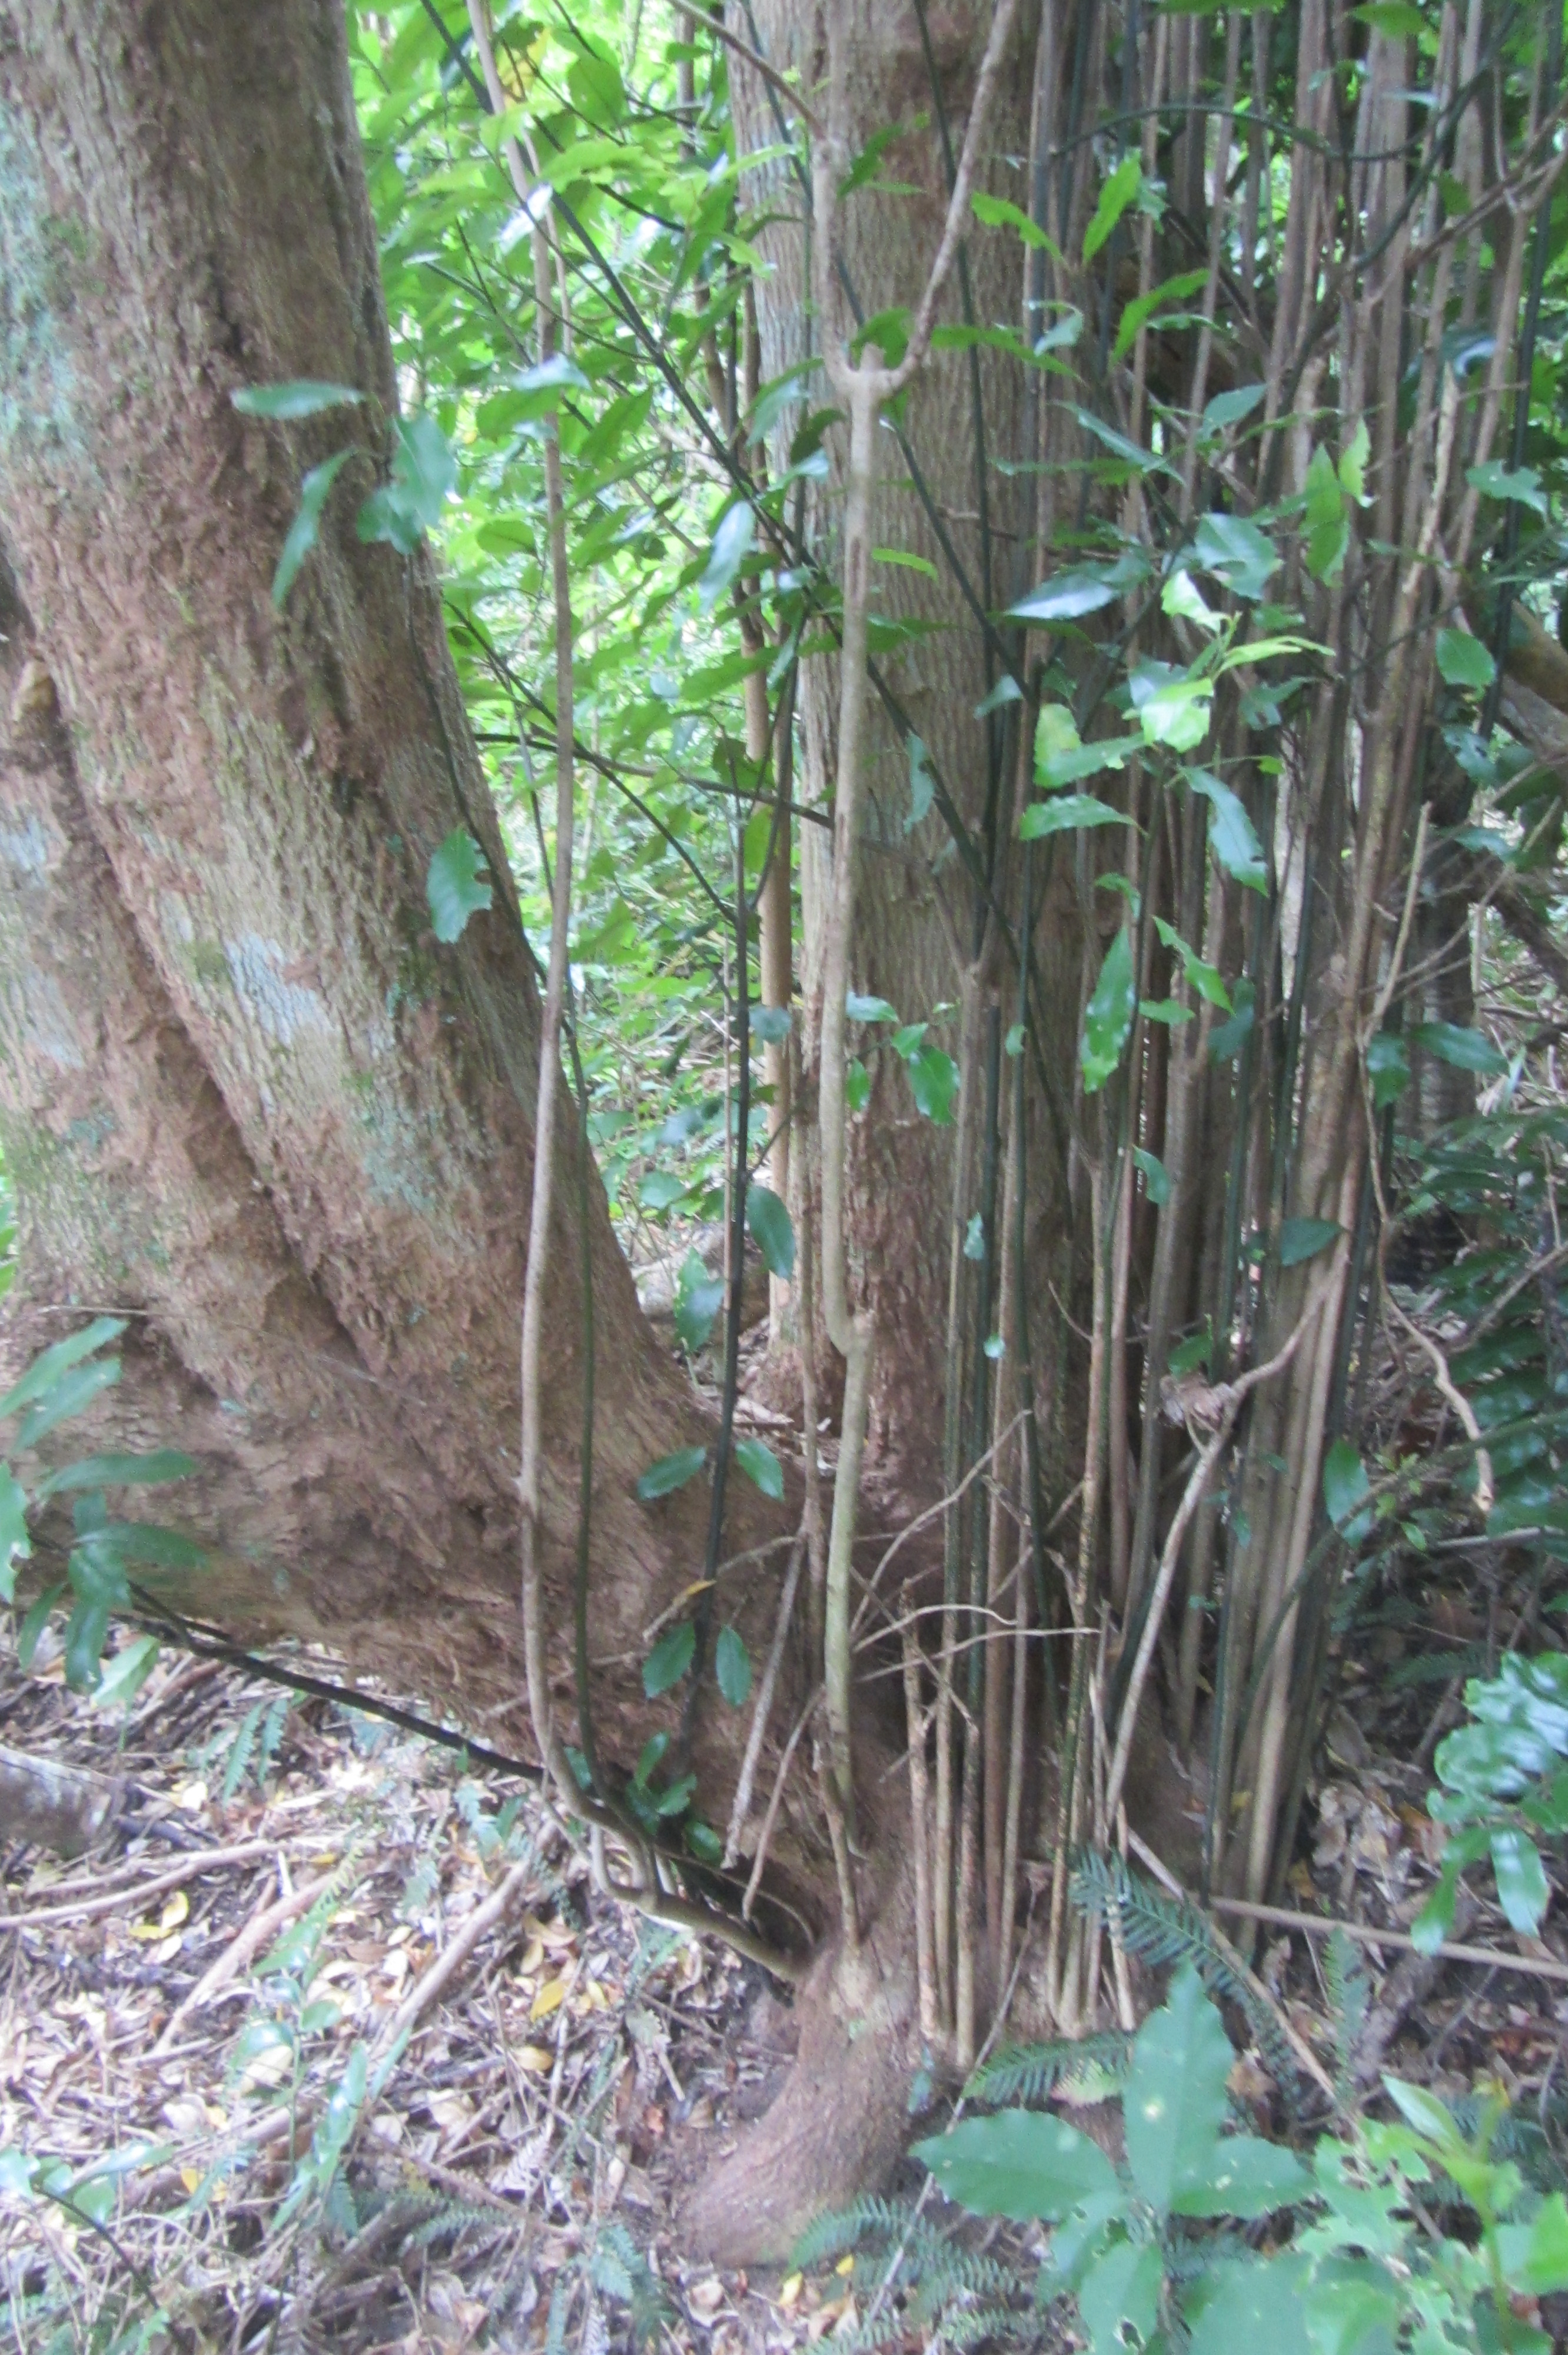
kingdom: Plantae
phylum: Tracheophyta
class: Magnoliopsida
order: Laurales
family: Monimiaceae
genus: Hedycarya
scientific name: Hedycarya arborea
